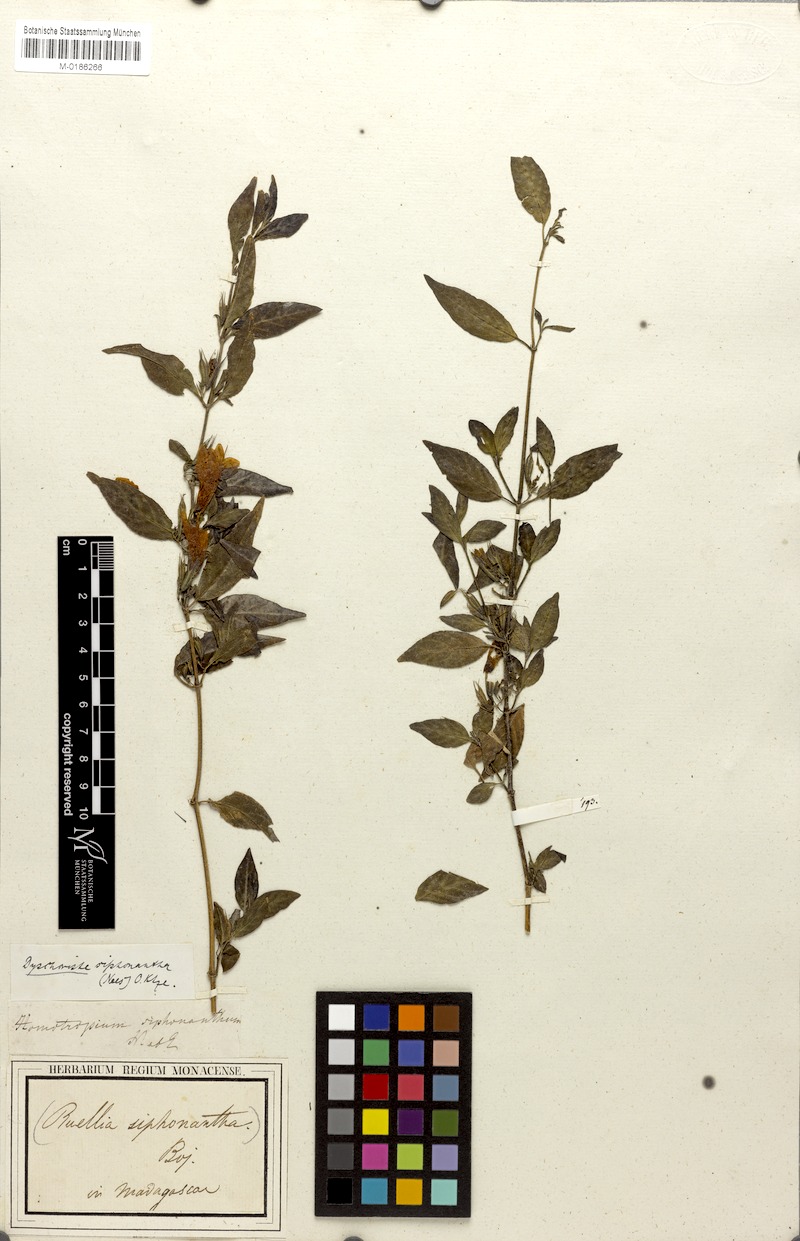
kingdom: Plantae
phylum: Tracheophyta
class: Magnoliopsida
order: Lamiales
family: Acanthaceae
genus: Dyschoriste
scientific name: Dyschoriste siphonantha
